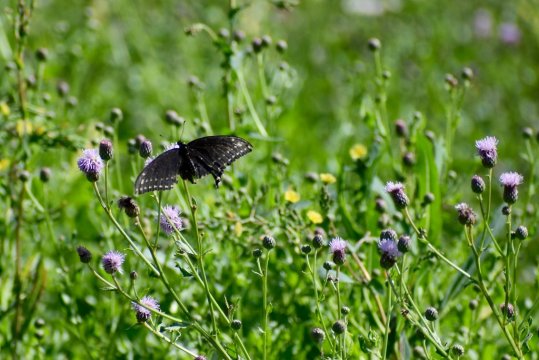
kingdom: Animalia
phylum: Arthropoda
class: Insecta
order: Lepidoptera
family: Papilionidae
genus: Papilio
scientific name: Papilio polyxenes
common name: Black Swallowtail
